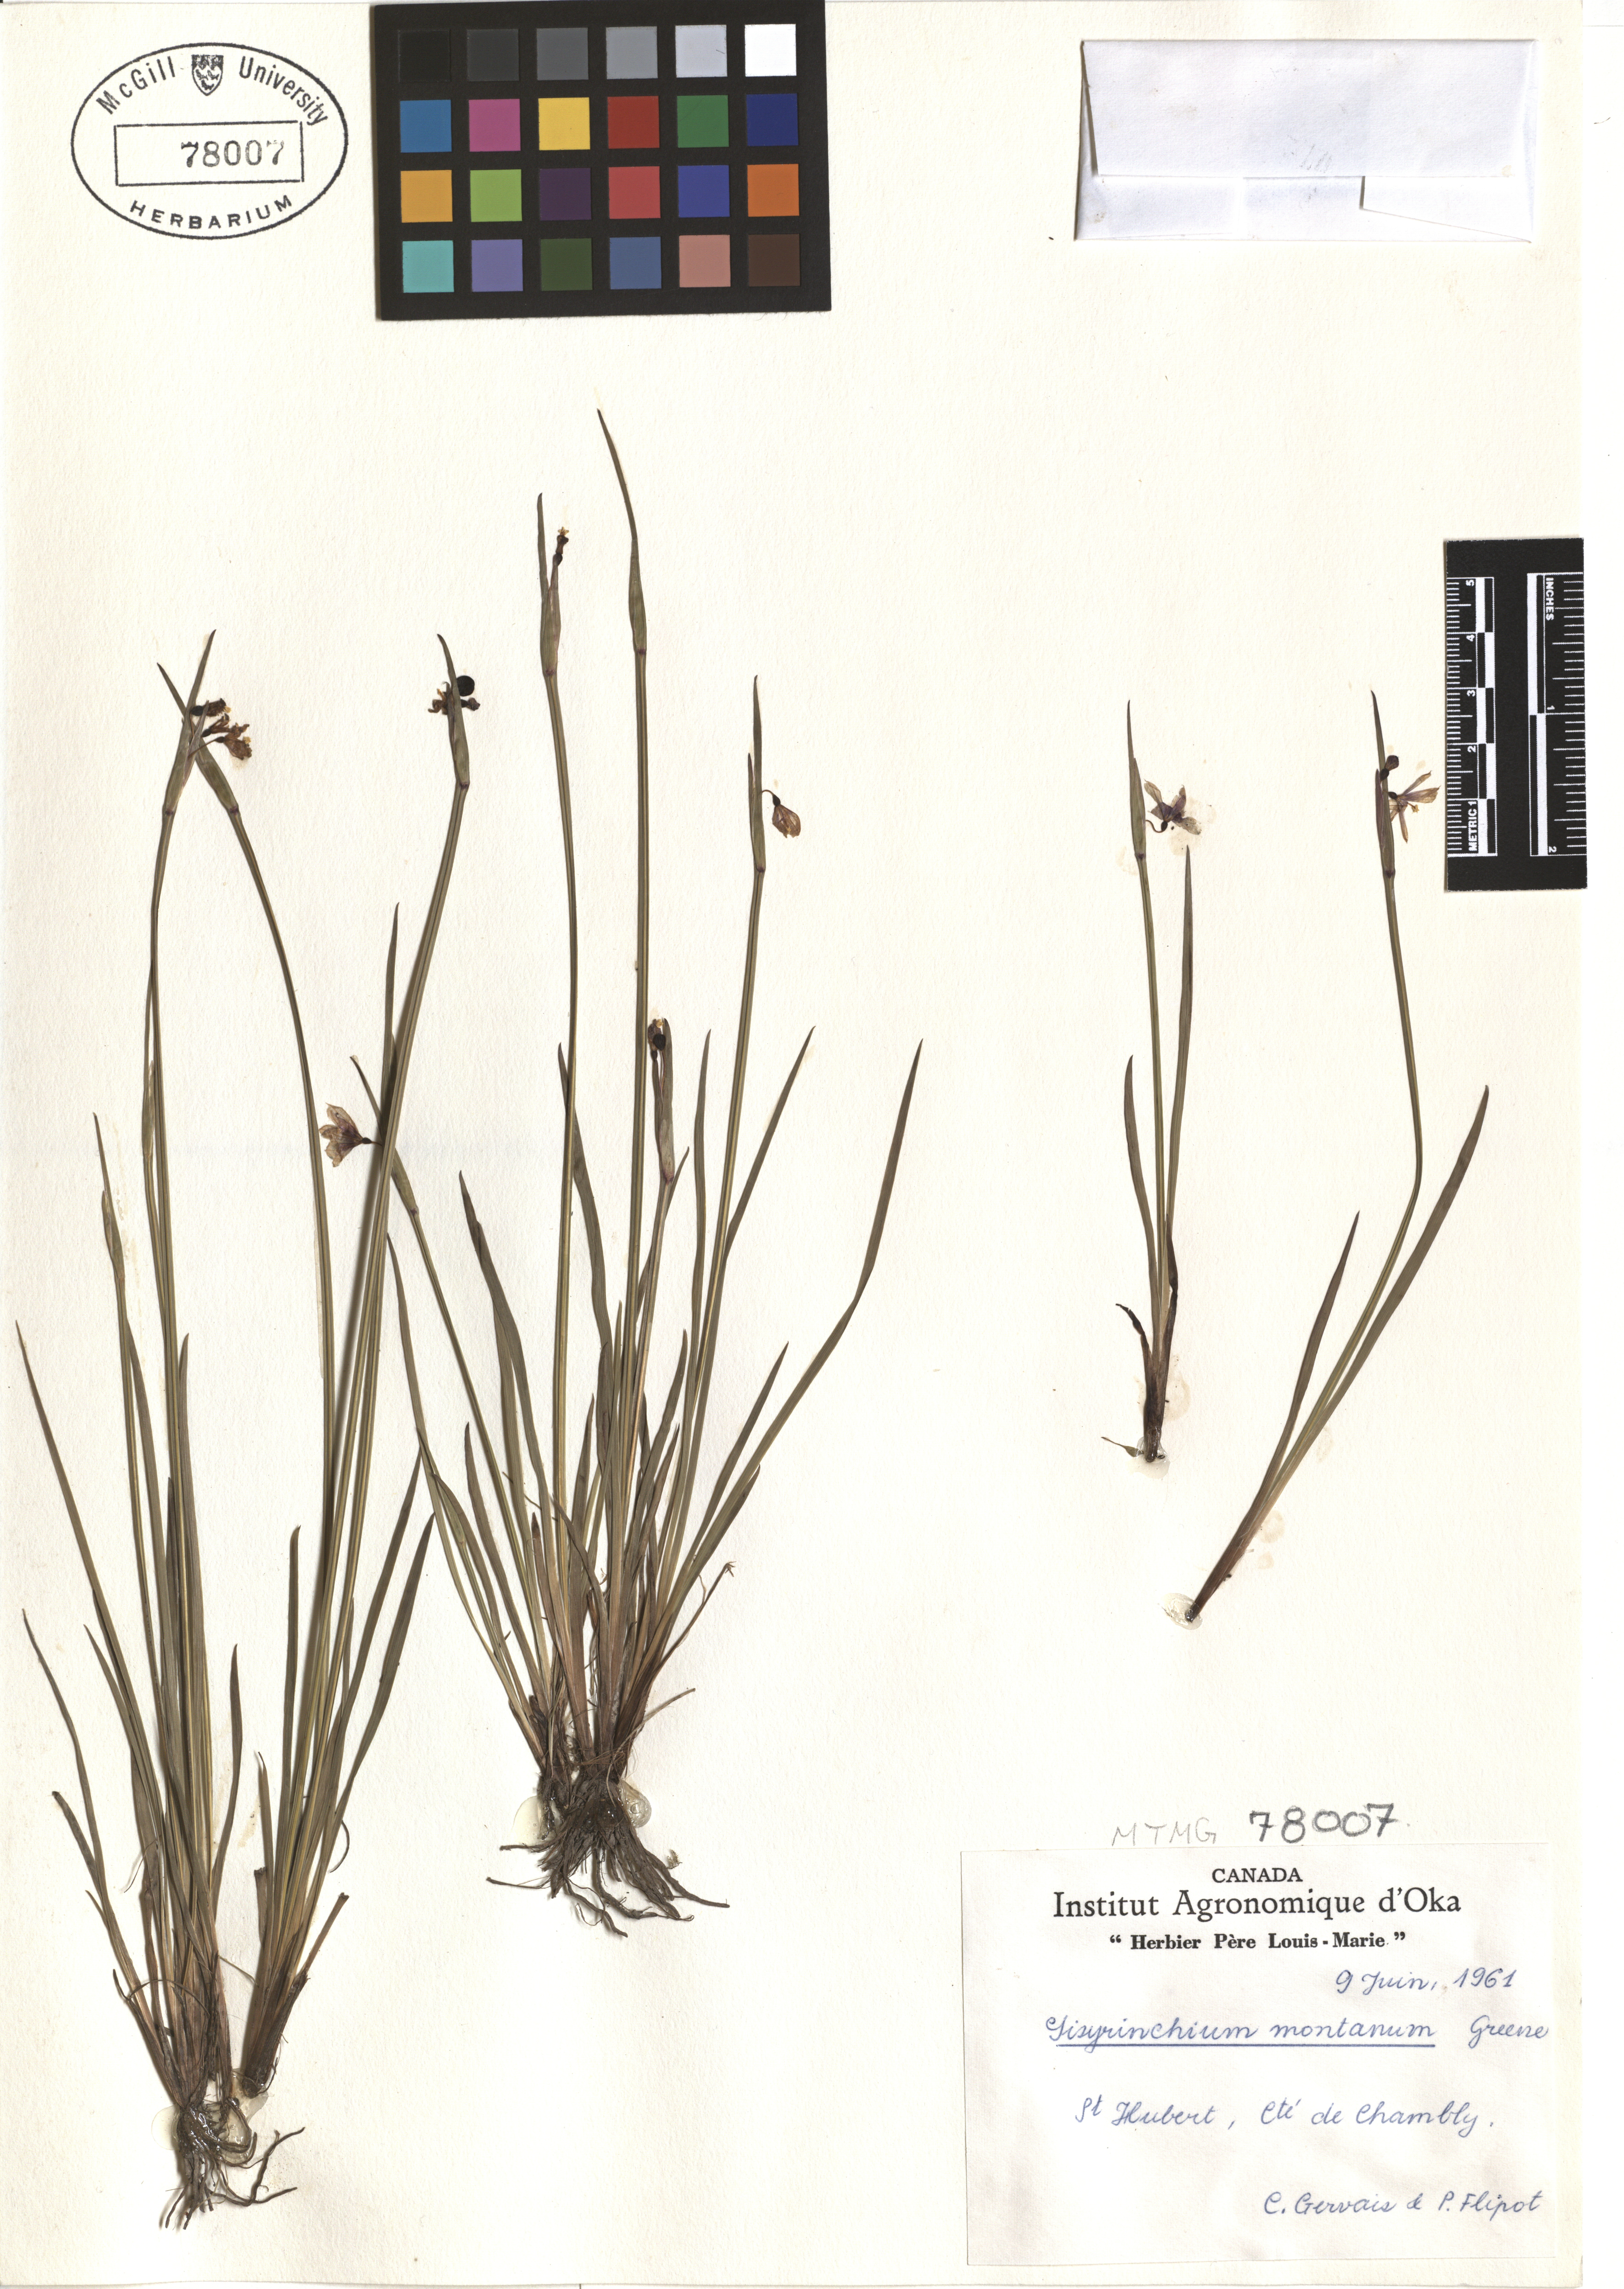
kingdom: Plantae
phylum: Tracheophyta
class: Liliopsida
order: Asparagales
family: Iridaceae
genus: Sisyrinchium
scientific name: Sisyrinchium montanum
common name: American blue-eyed-grass
